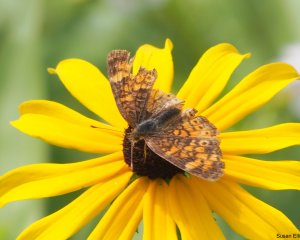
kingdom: Animalia
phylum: Arthropoda
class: Insecta
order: Lepidoptera
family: Nymphalidae
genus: Phyciodes
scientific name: Phyciodes
